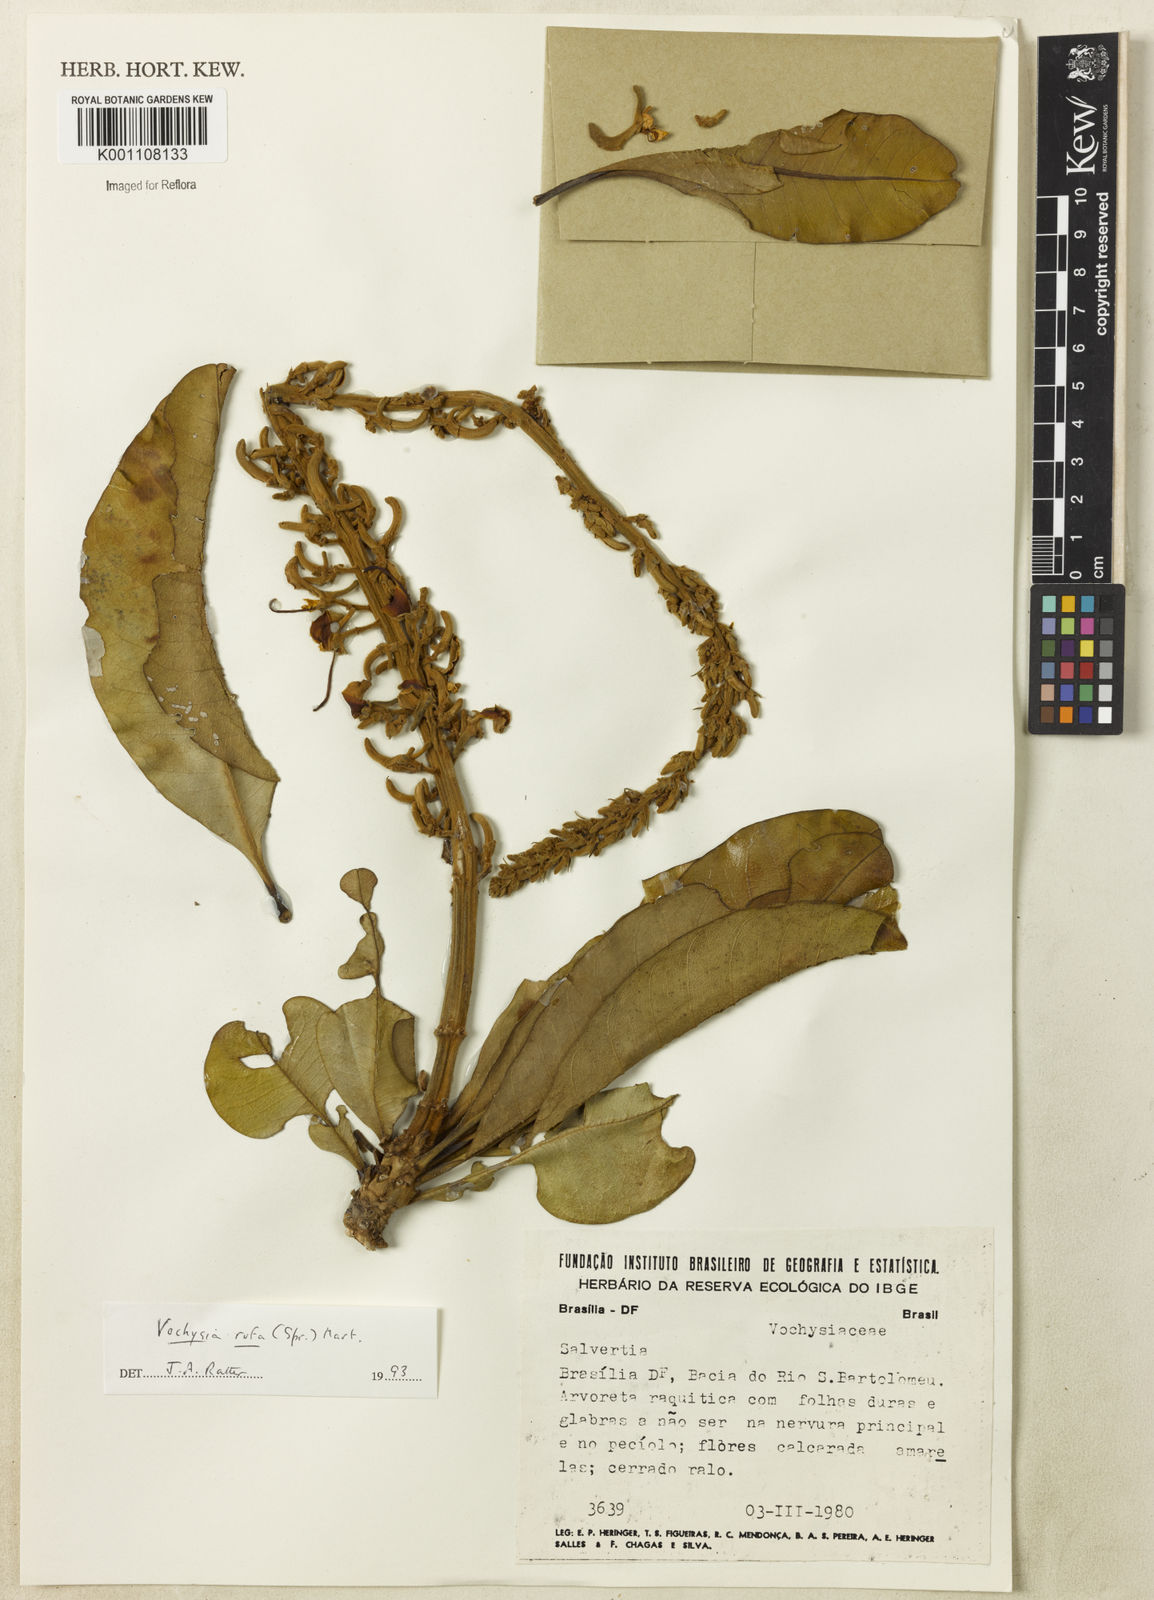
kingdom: Plantae
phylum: Tracheophyta
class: Magnoliopsida
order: Myrtales
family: Vochysiaceae
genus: Vochysia
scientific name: Vochysia rufa
